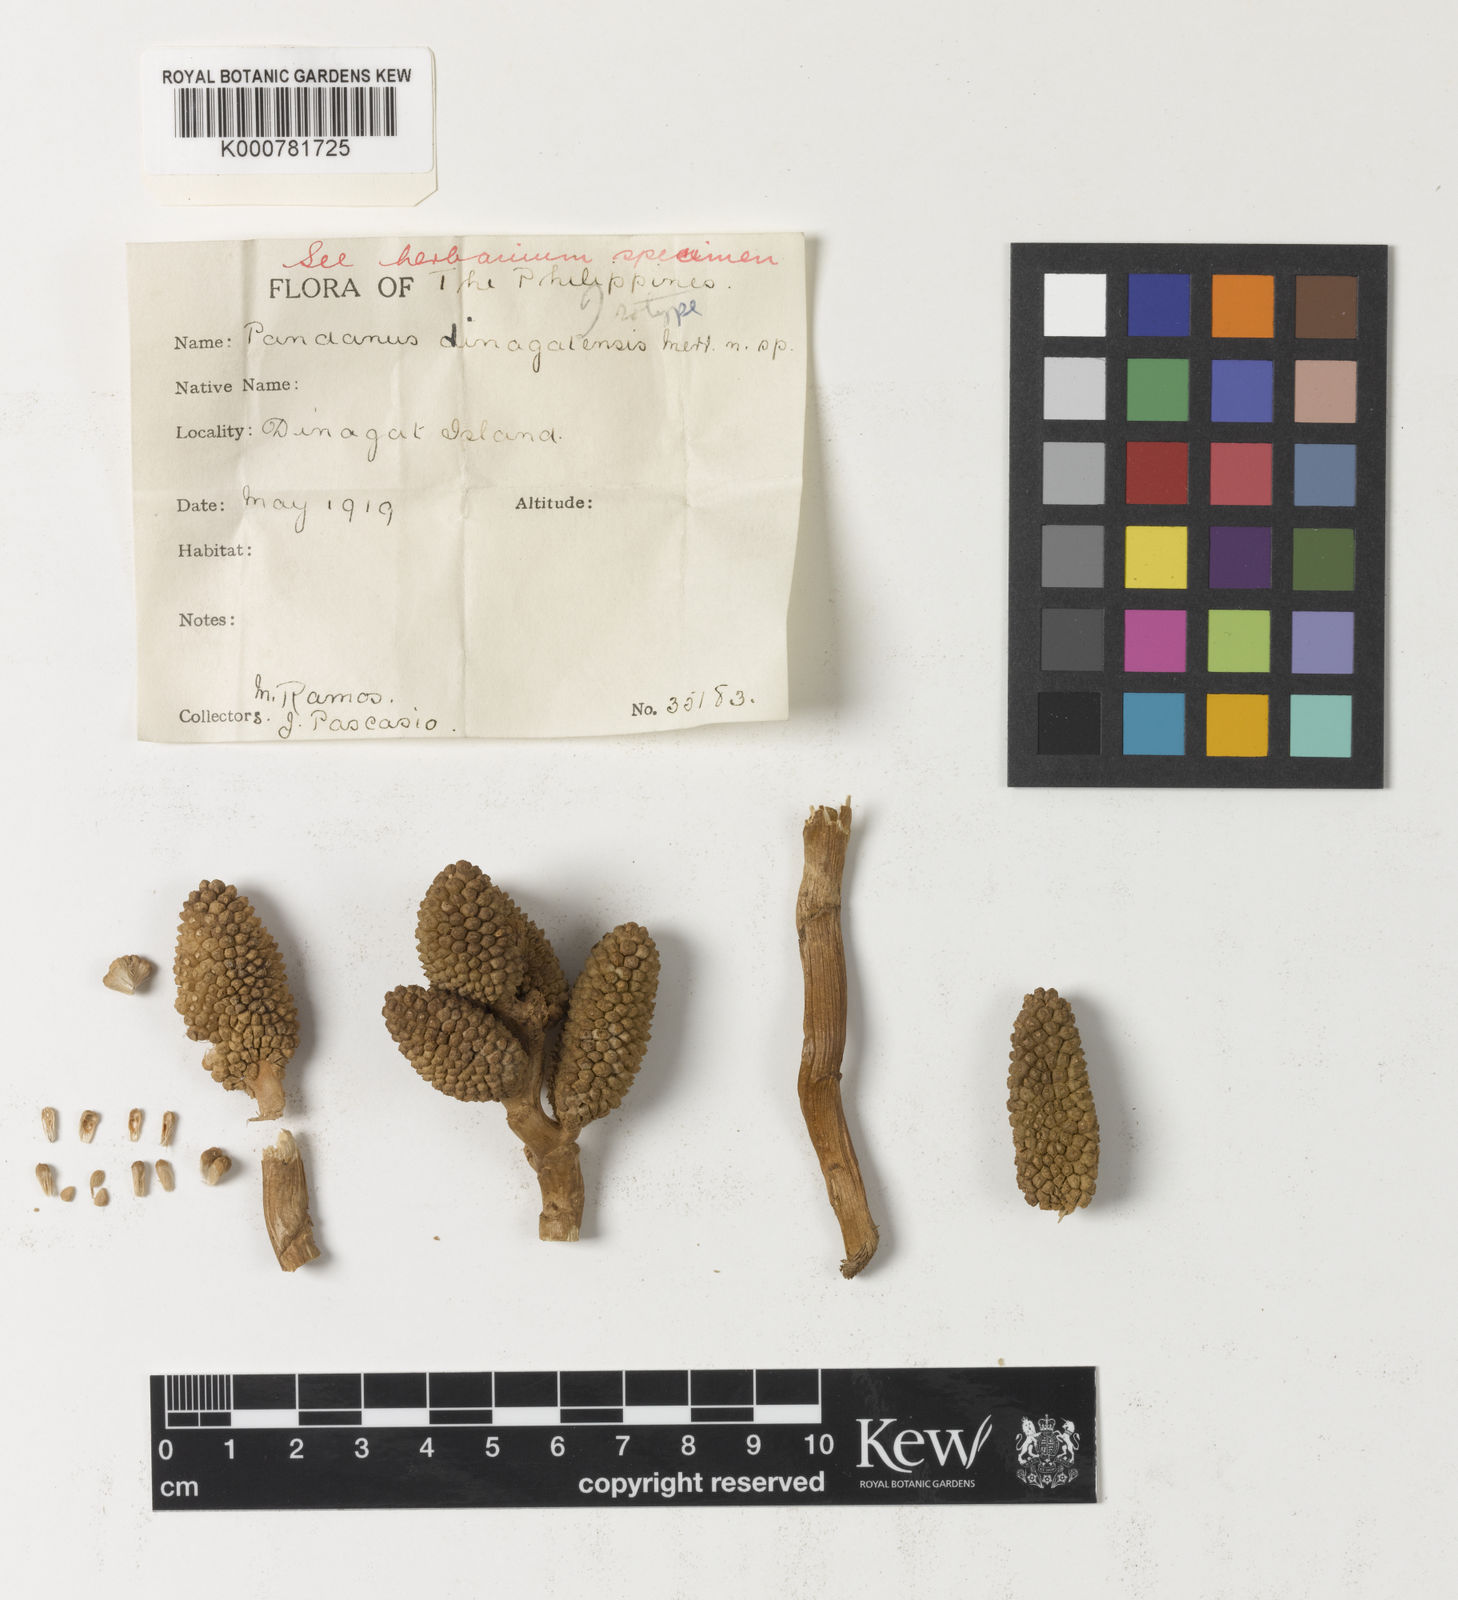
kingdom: Plantae
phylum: Tracheophyta
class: Liliopsida
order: Pandanales
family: Pandanaceae
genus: Pandanus
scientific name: Pandanus dinagatensis
